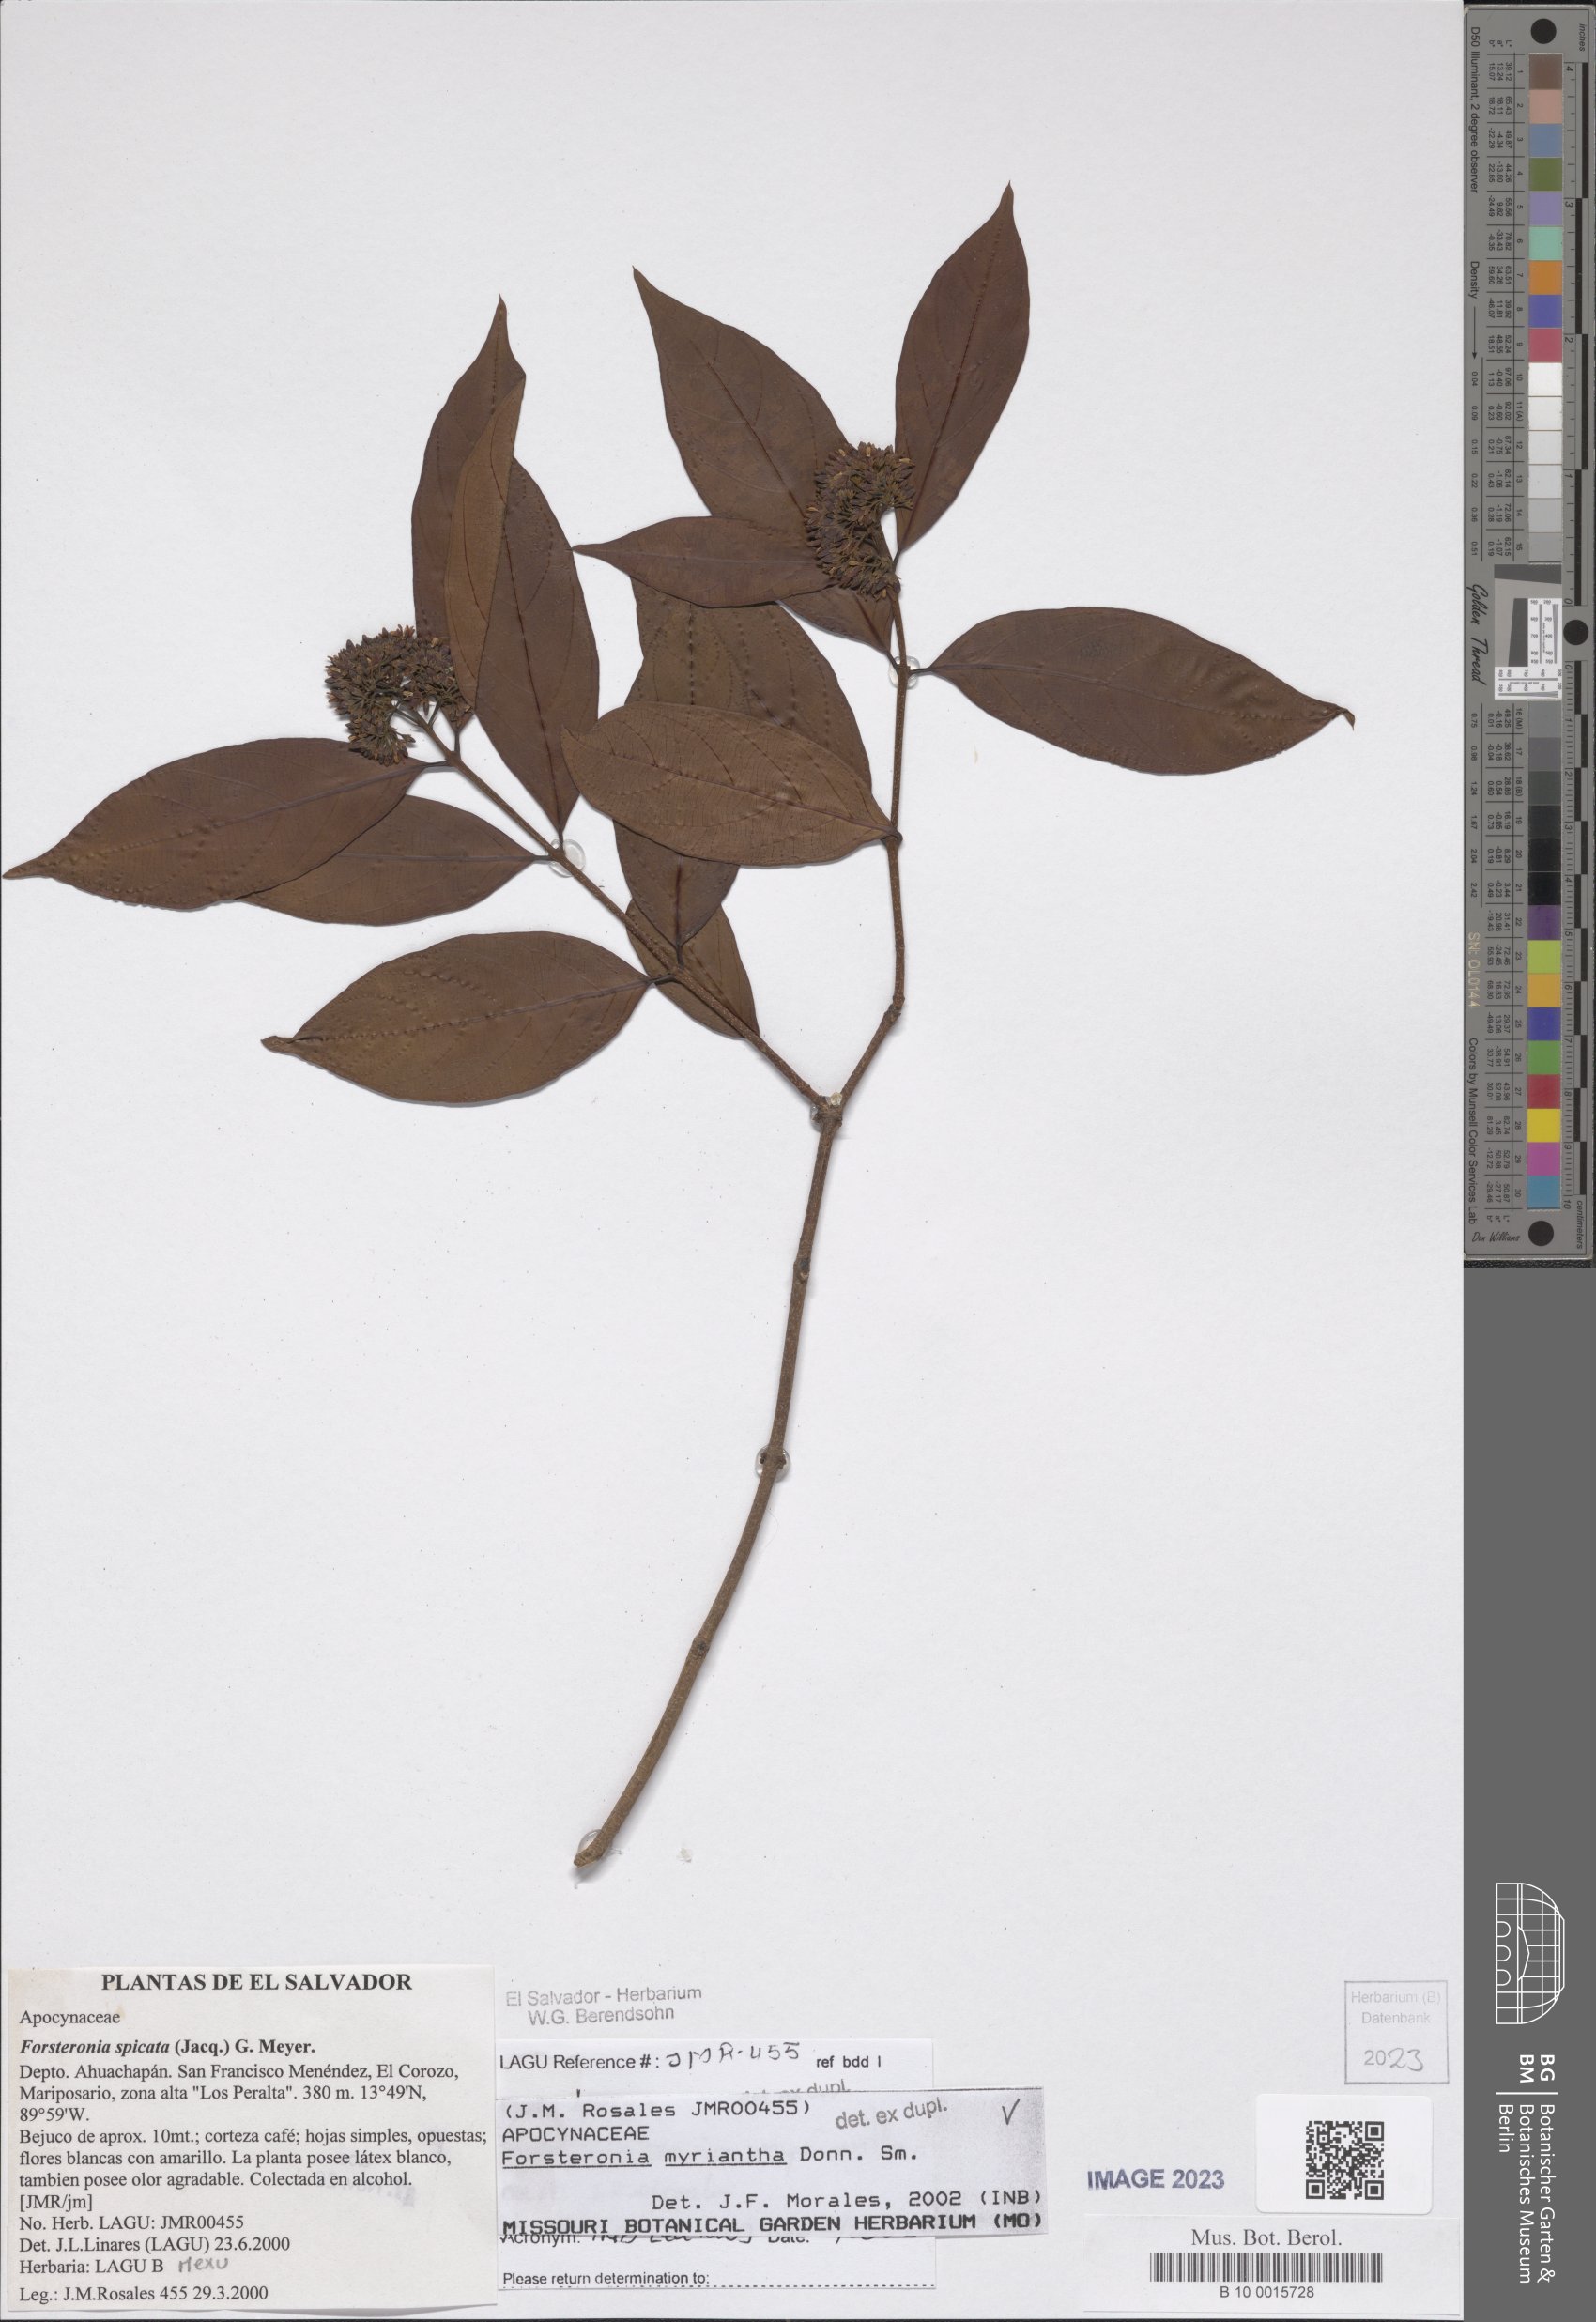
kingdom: Plantae
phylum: Tracheophyta
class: Magnoliopsida
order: Gentianales
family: Apocynaceae
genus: Forsteronia
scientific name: Forsteronia myriantha
